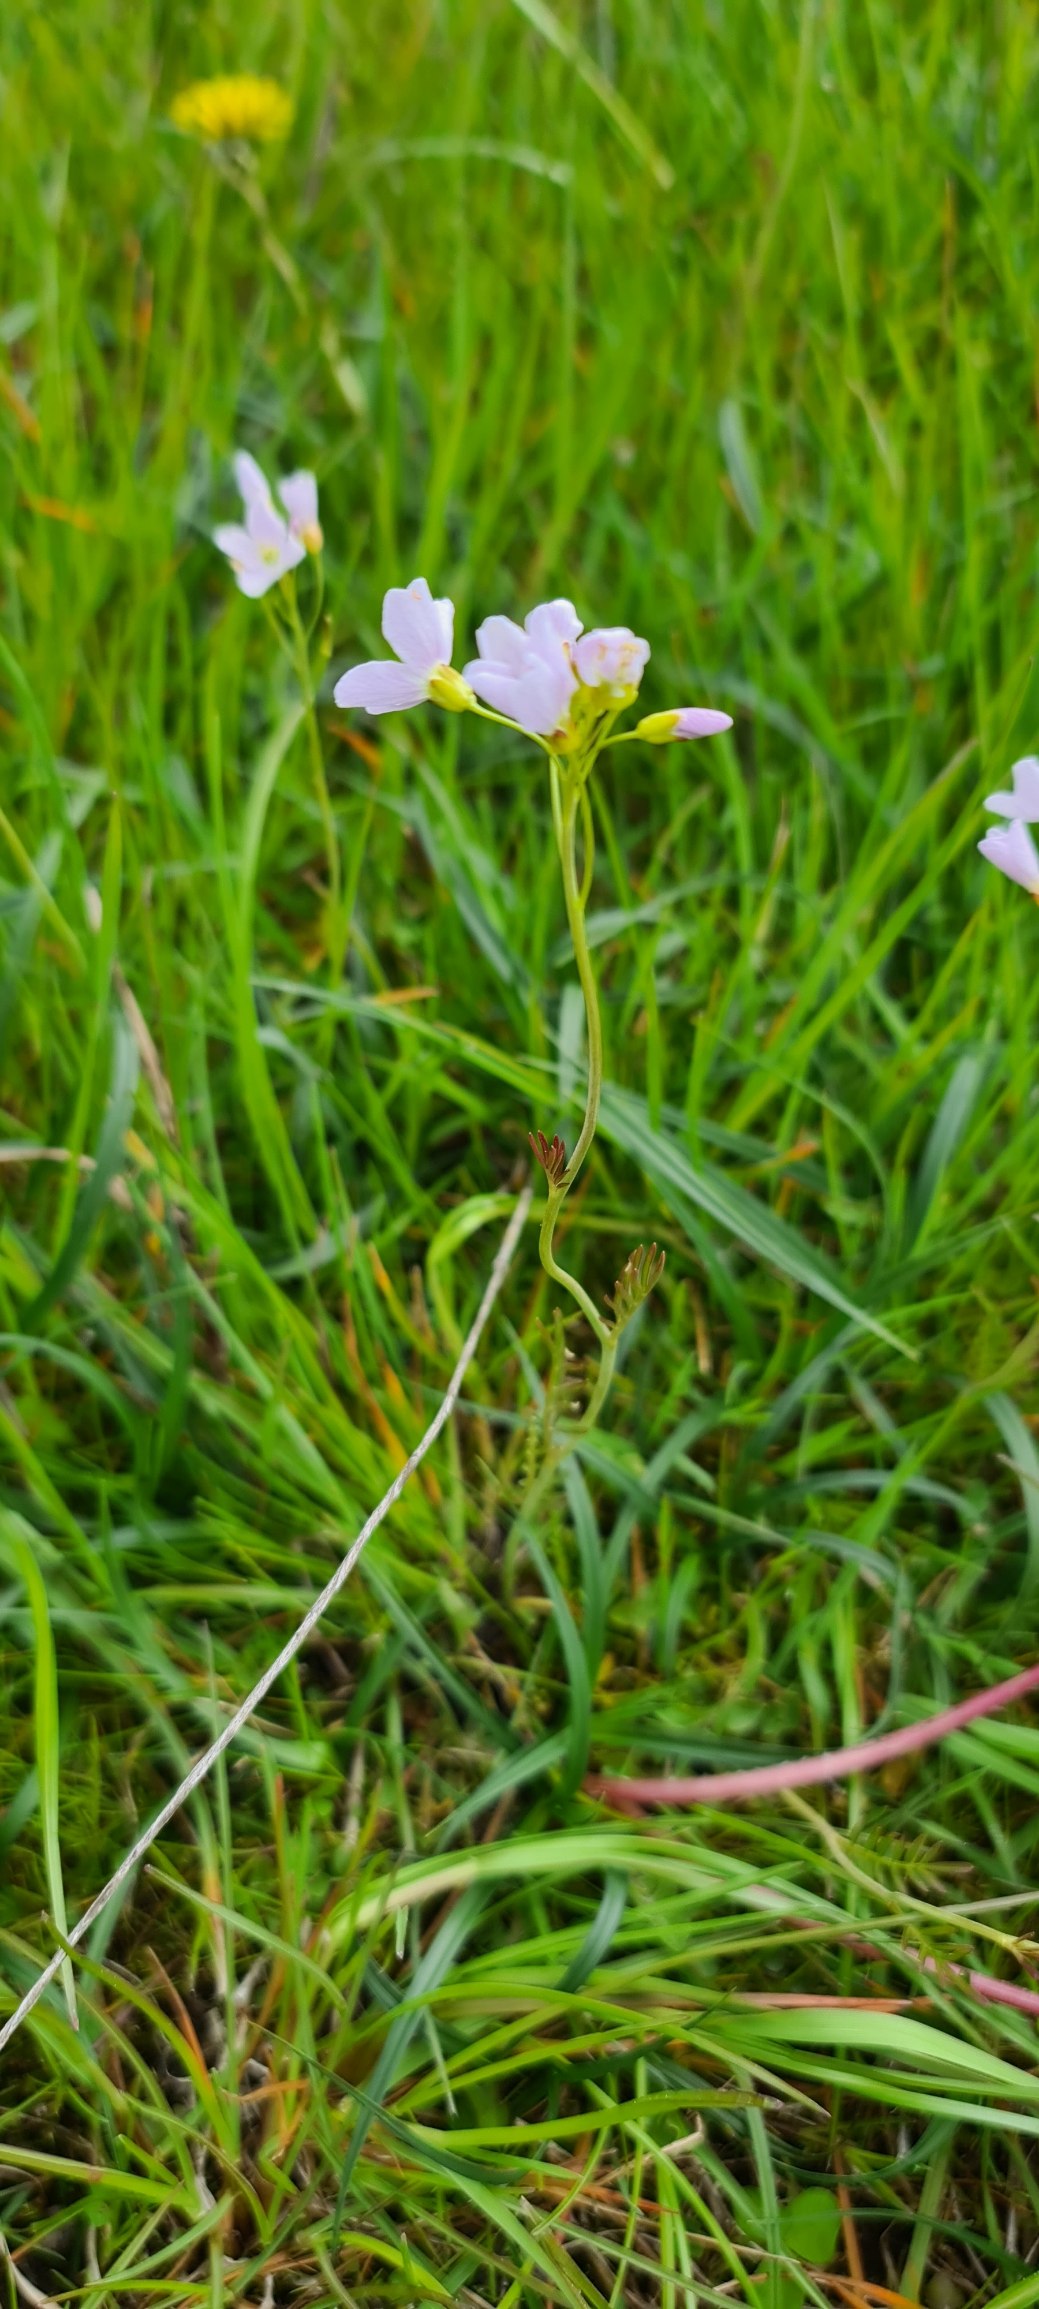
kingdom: Plantae
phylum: Tracheophyta
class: Magnoliopsida
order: Brassicales
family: Brassicaceae
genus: Cardamine
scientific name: Cardamine pratensis
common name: Engkarse
